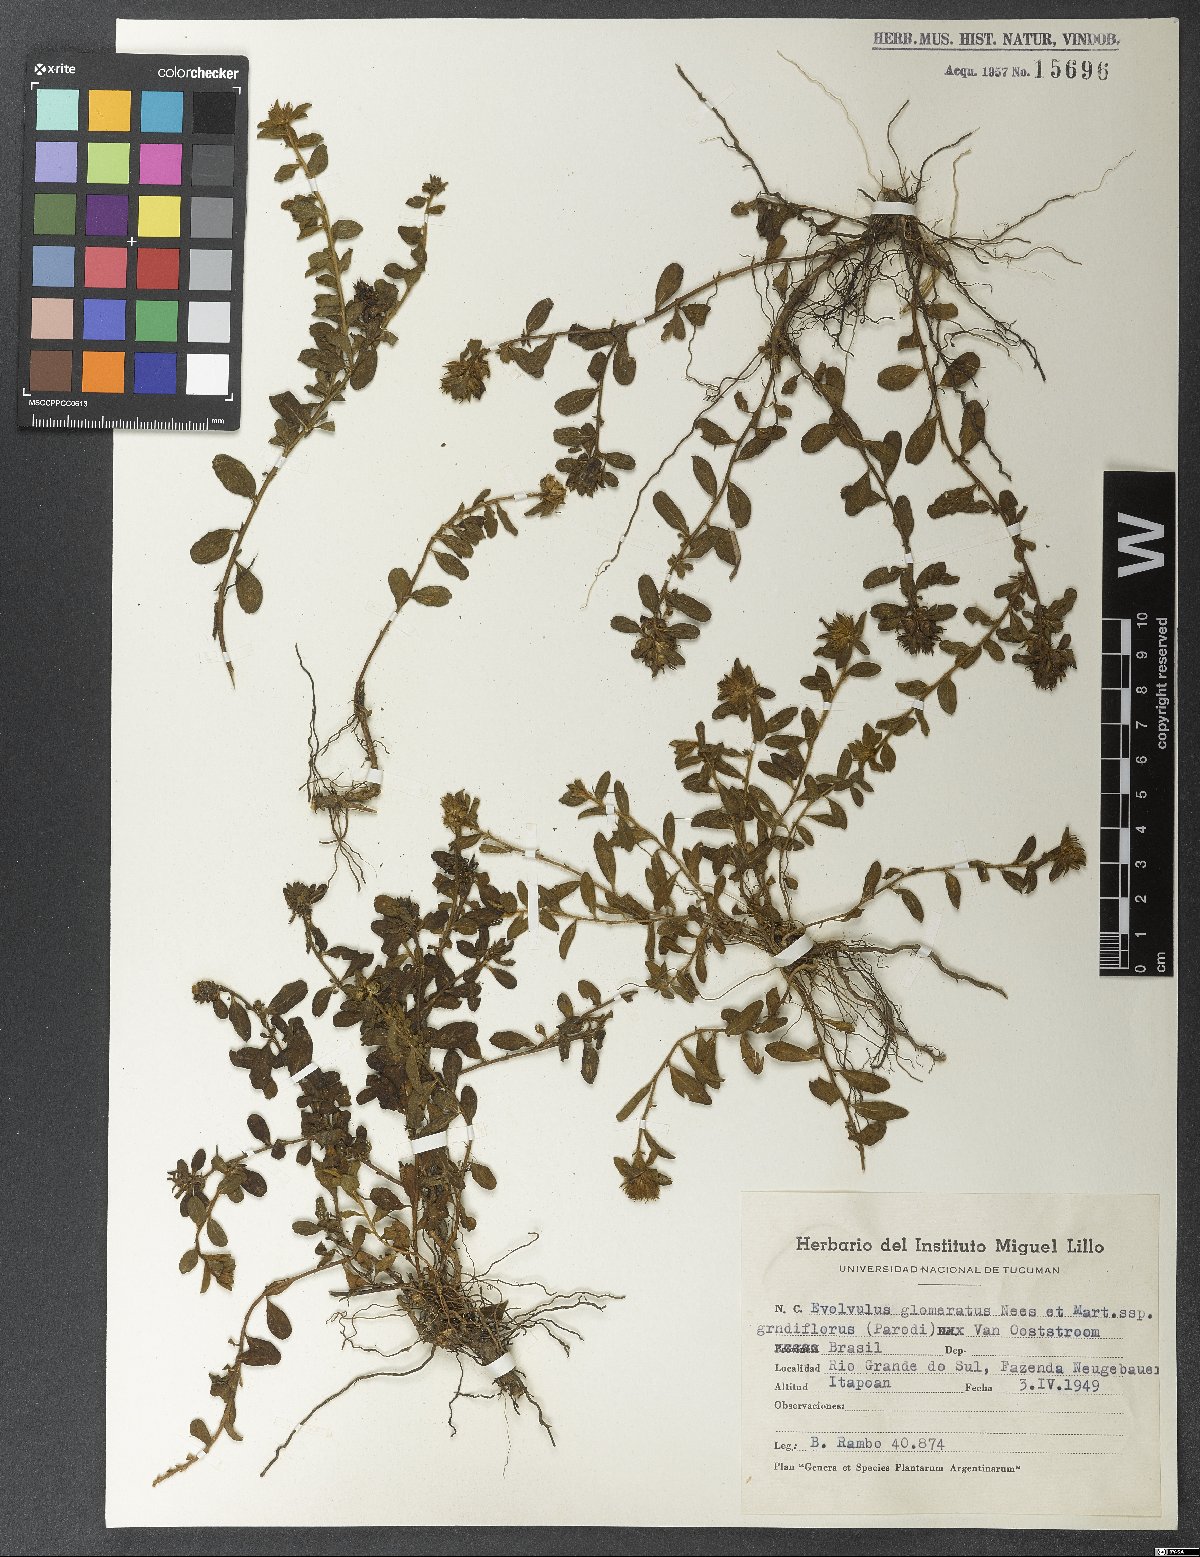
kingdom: Plantae
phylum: Tracheophyta
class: Magnoliopsida
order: Solanales
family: Convolvulaceae
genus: Evolvulus
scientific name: Evolvulus glomeratus
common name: Brazilian dwarf morning-glory
